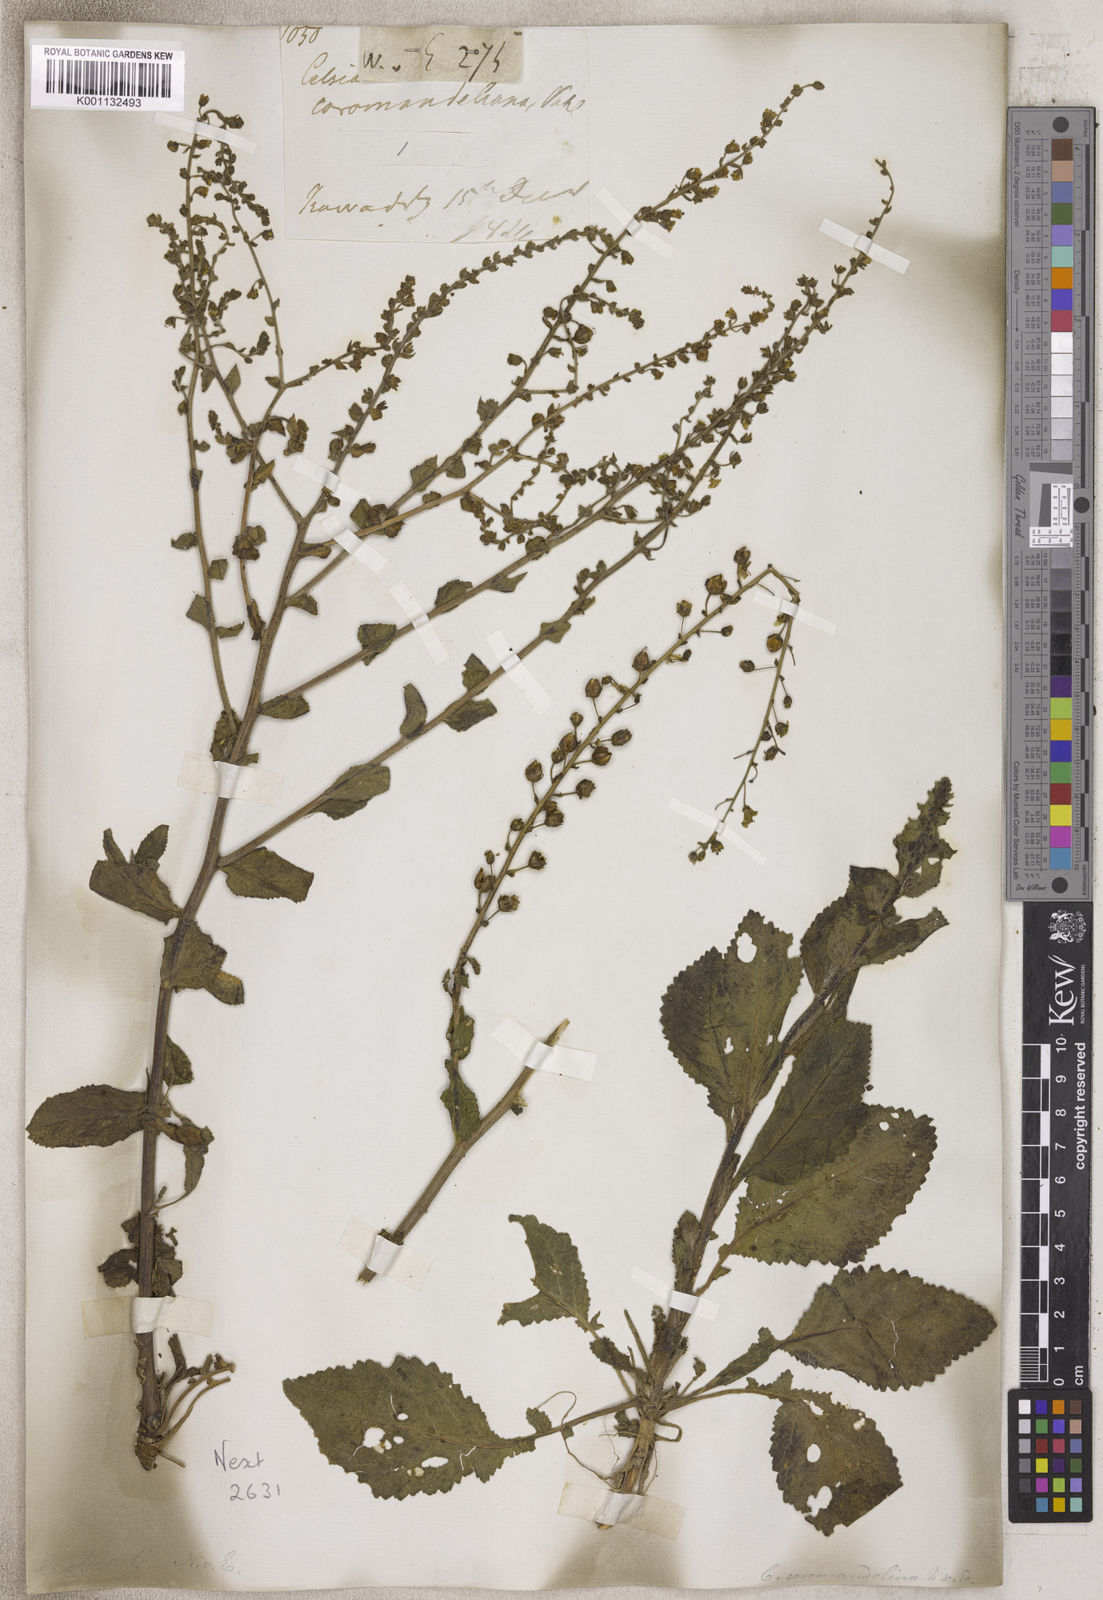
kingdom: Animalia
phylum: Arthropoda
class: Insecta
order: Lepidoptera
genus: Celsia
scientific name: Celsia
